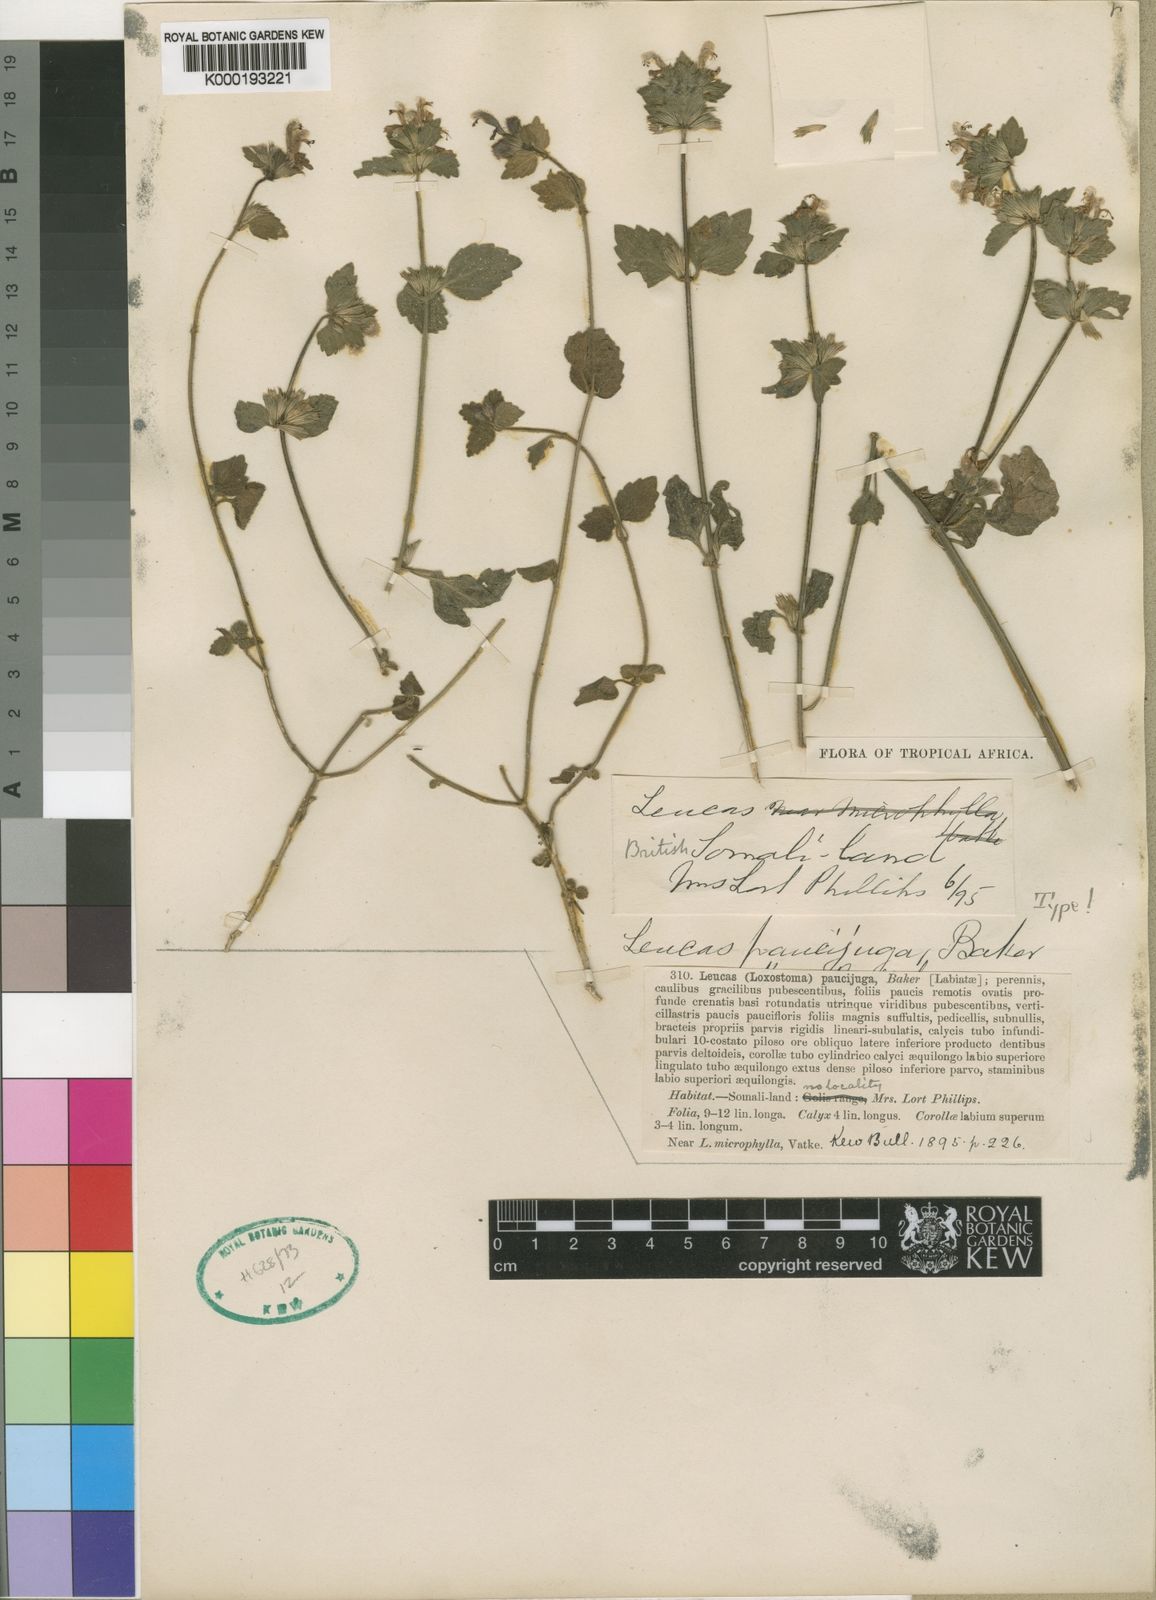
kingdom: Plantae
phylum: Tracheophyta
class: Magnoliopsida
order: Lamiales
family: Lamiaceae
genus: Leucas
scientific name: Leucas glabrata
